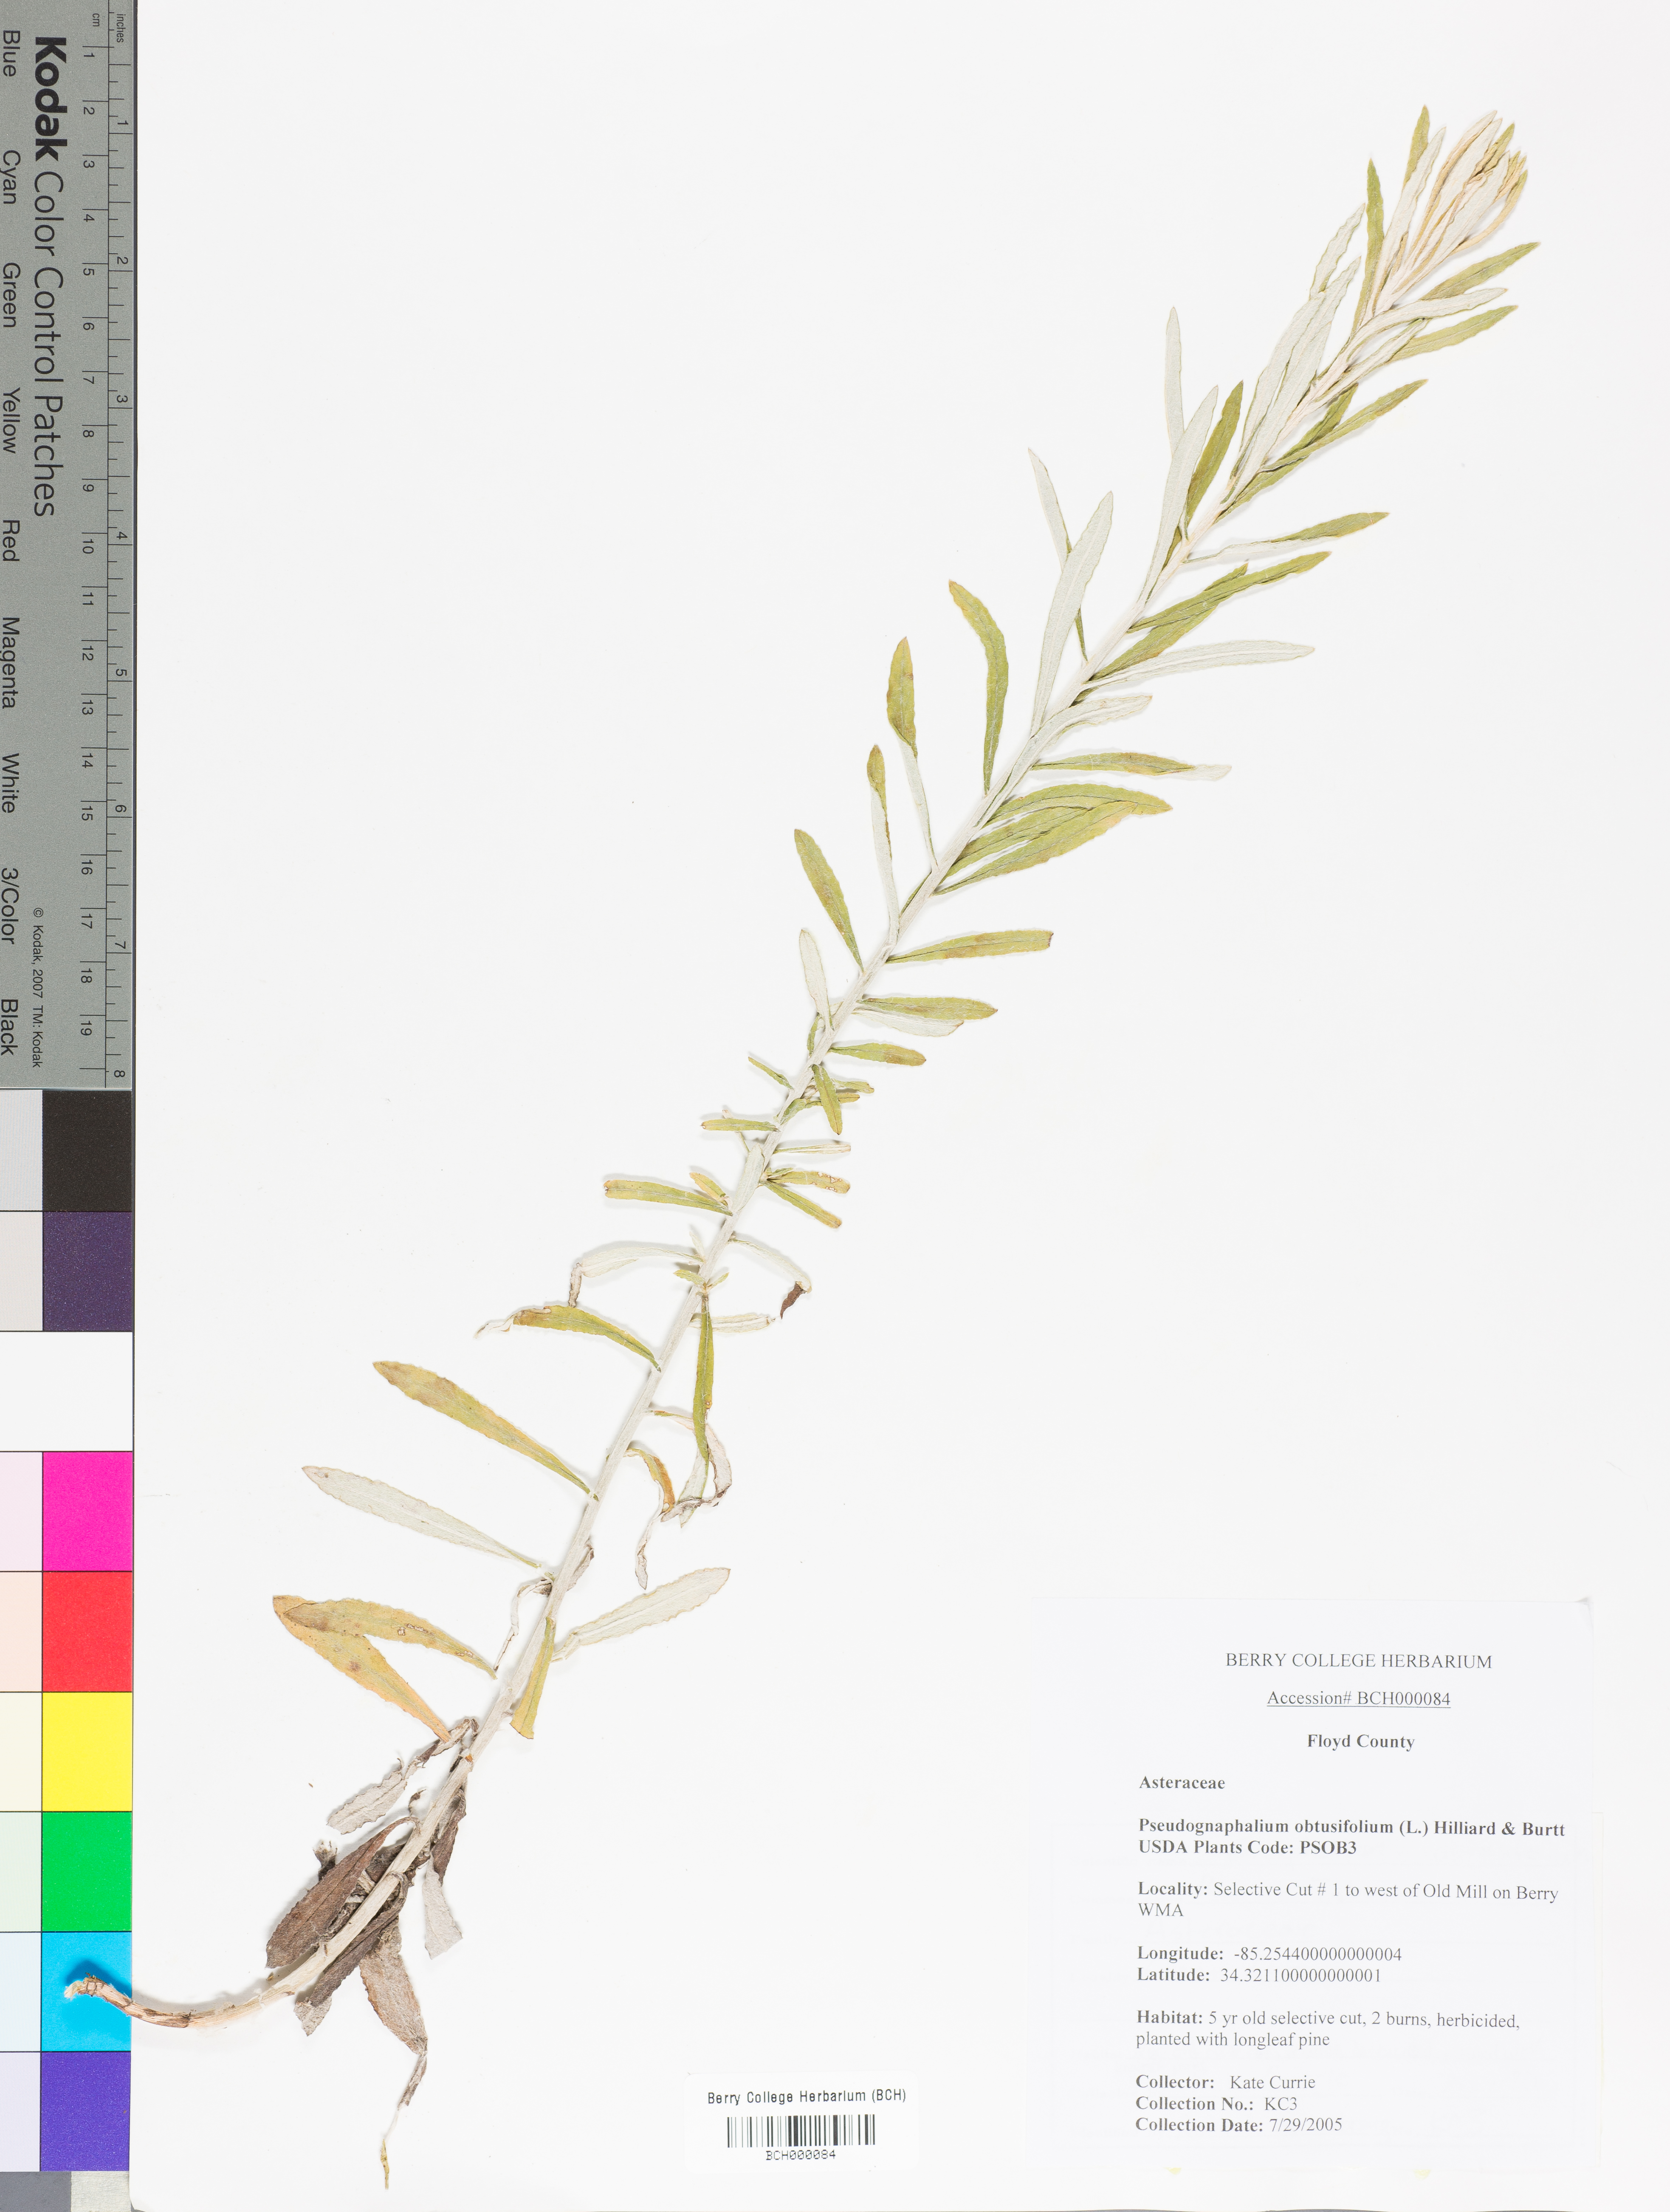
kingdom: Plantae
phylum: Tracheophyta
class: Magnoliopsida
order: Asterales
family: Asteraceae
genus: Pseudognaphalium
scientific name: Pseudognaphalium obtusifolium
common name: Eastern rabbit-tobacco
